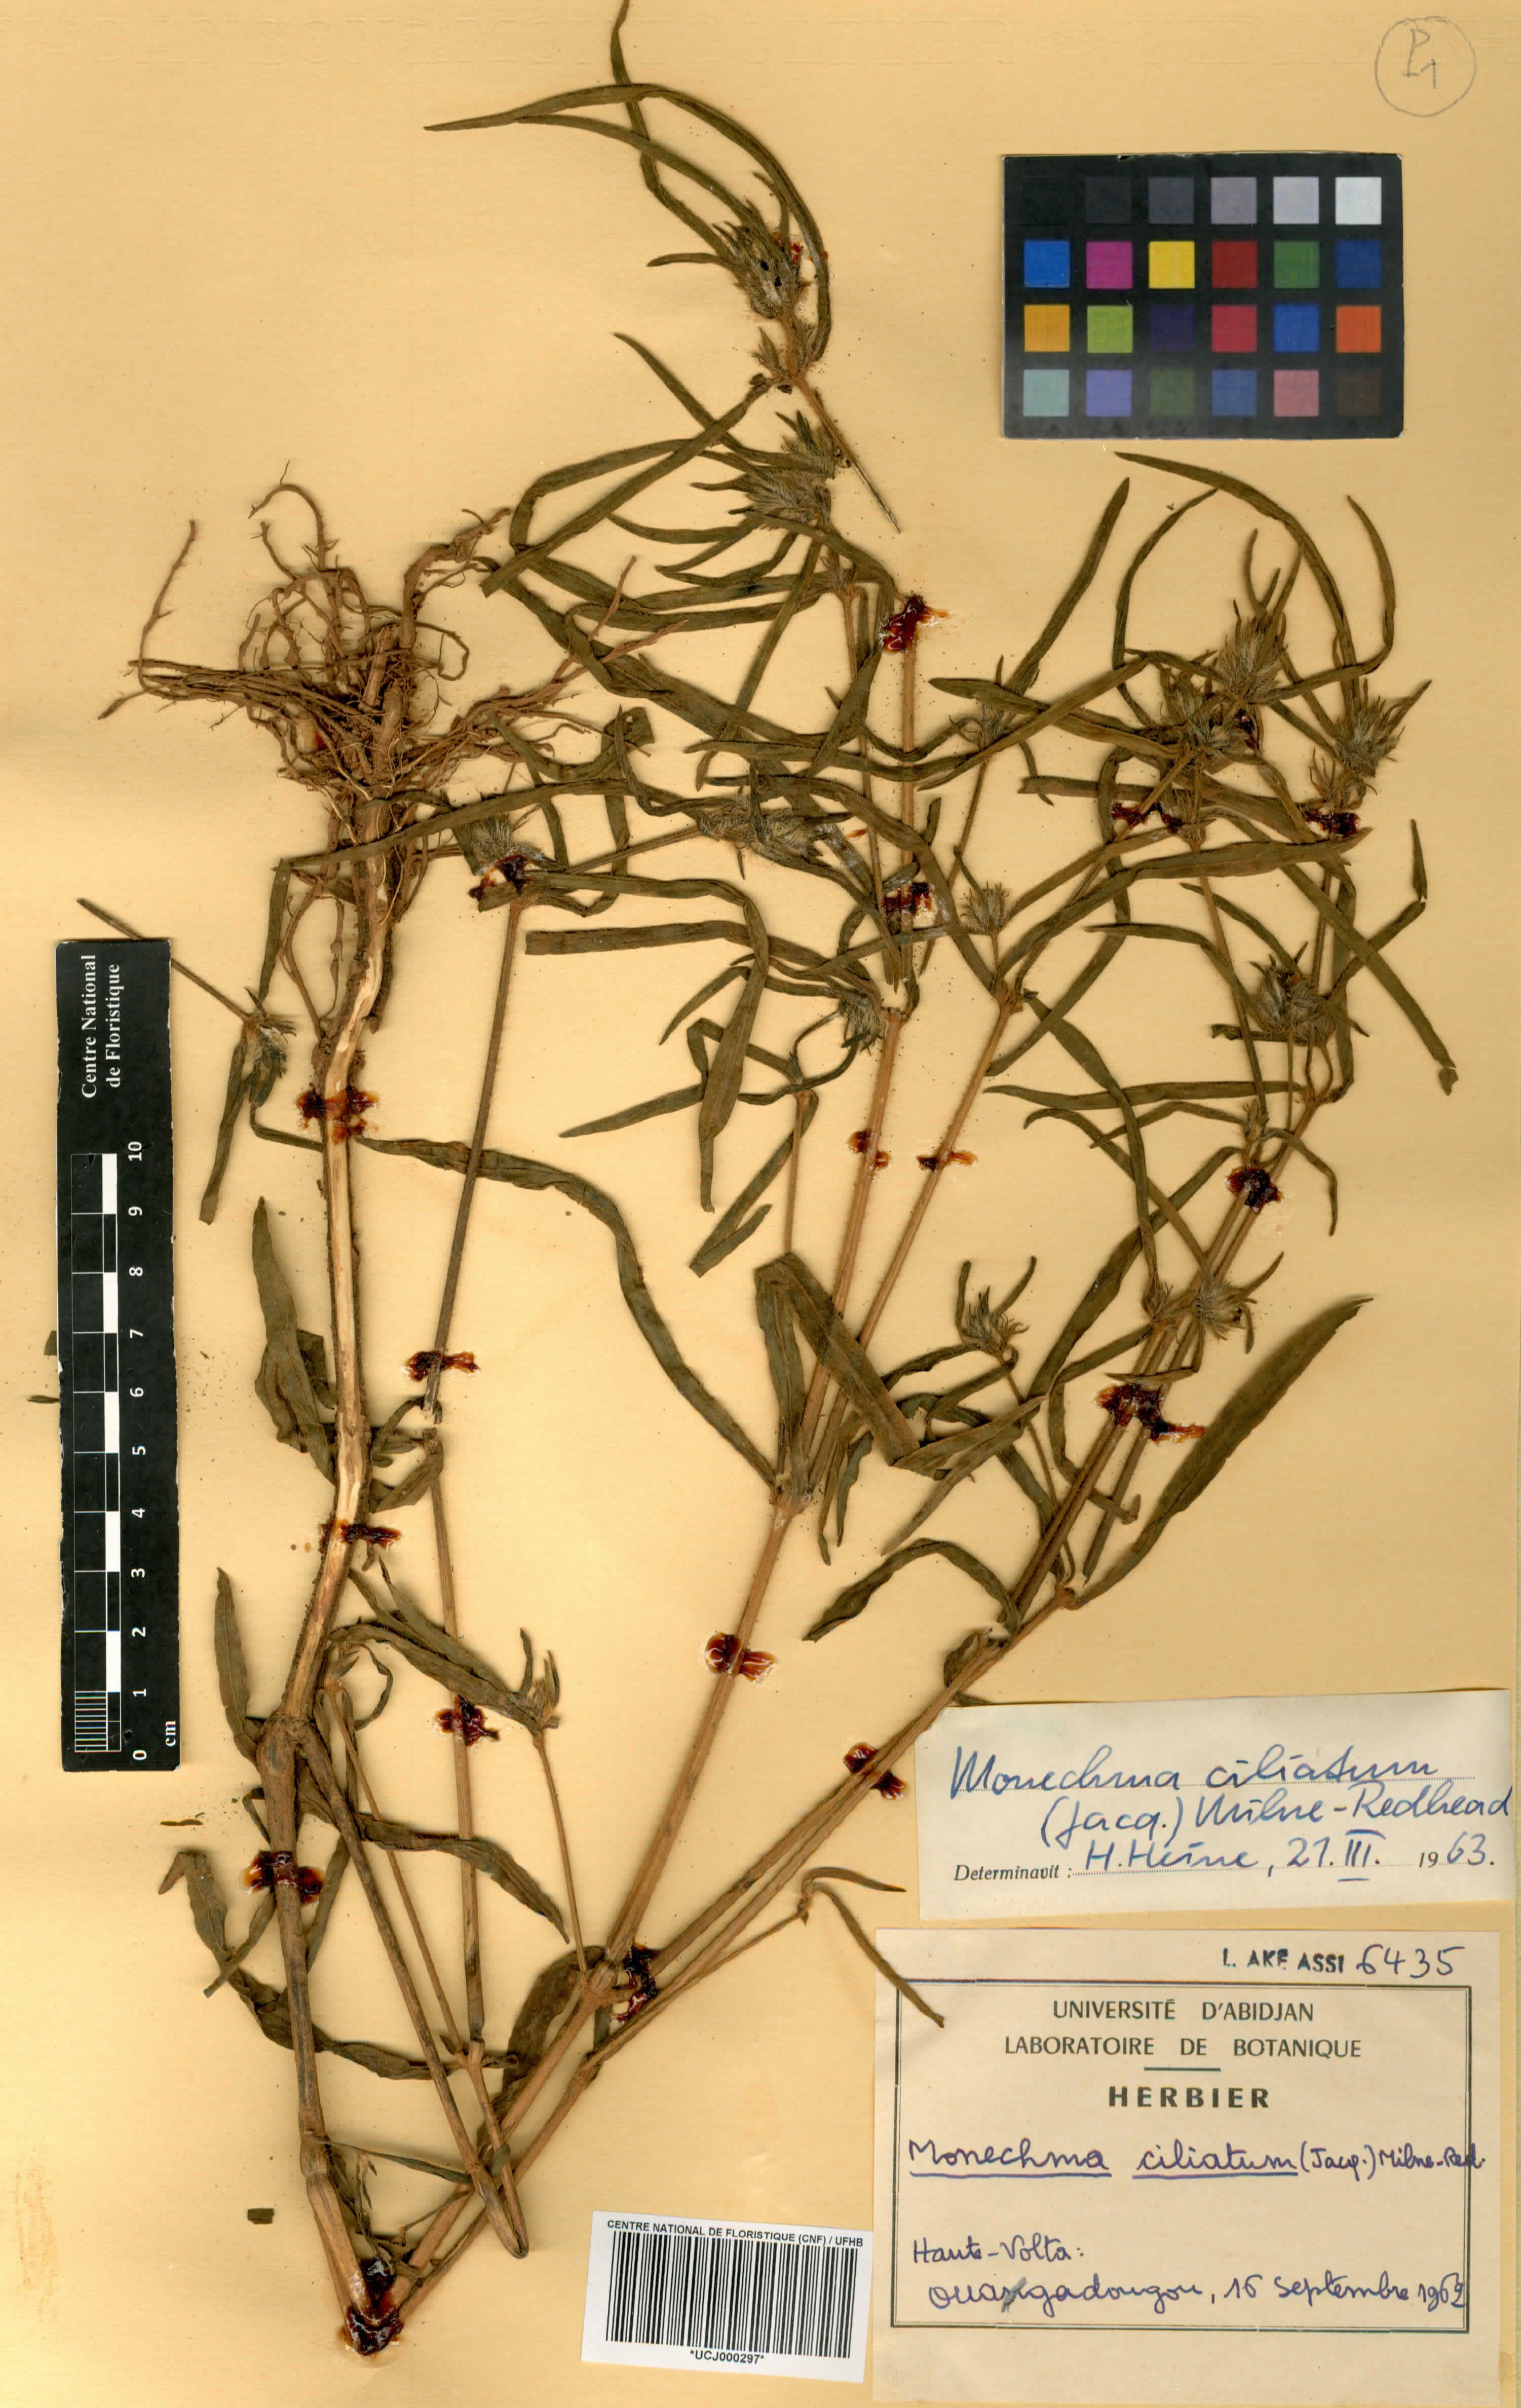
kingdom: Plantae
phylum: Tracheophyta
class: Magnoliopsida
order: Lamiales
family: Acanthaceae
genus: Monechma
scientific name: Monechma
